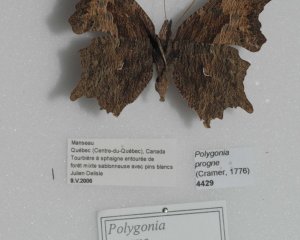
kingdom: Animalia
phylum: Arthropoda
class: Insecta
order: Lepidoptera
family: Nymphalidae
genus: Polygonia
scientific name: Polygonia progne
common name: Gray Comma
